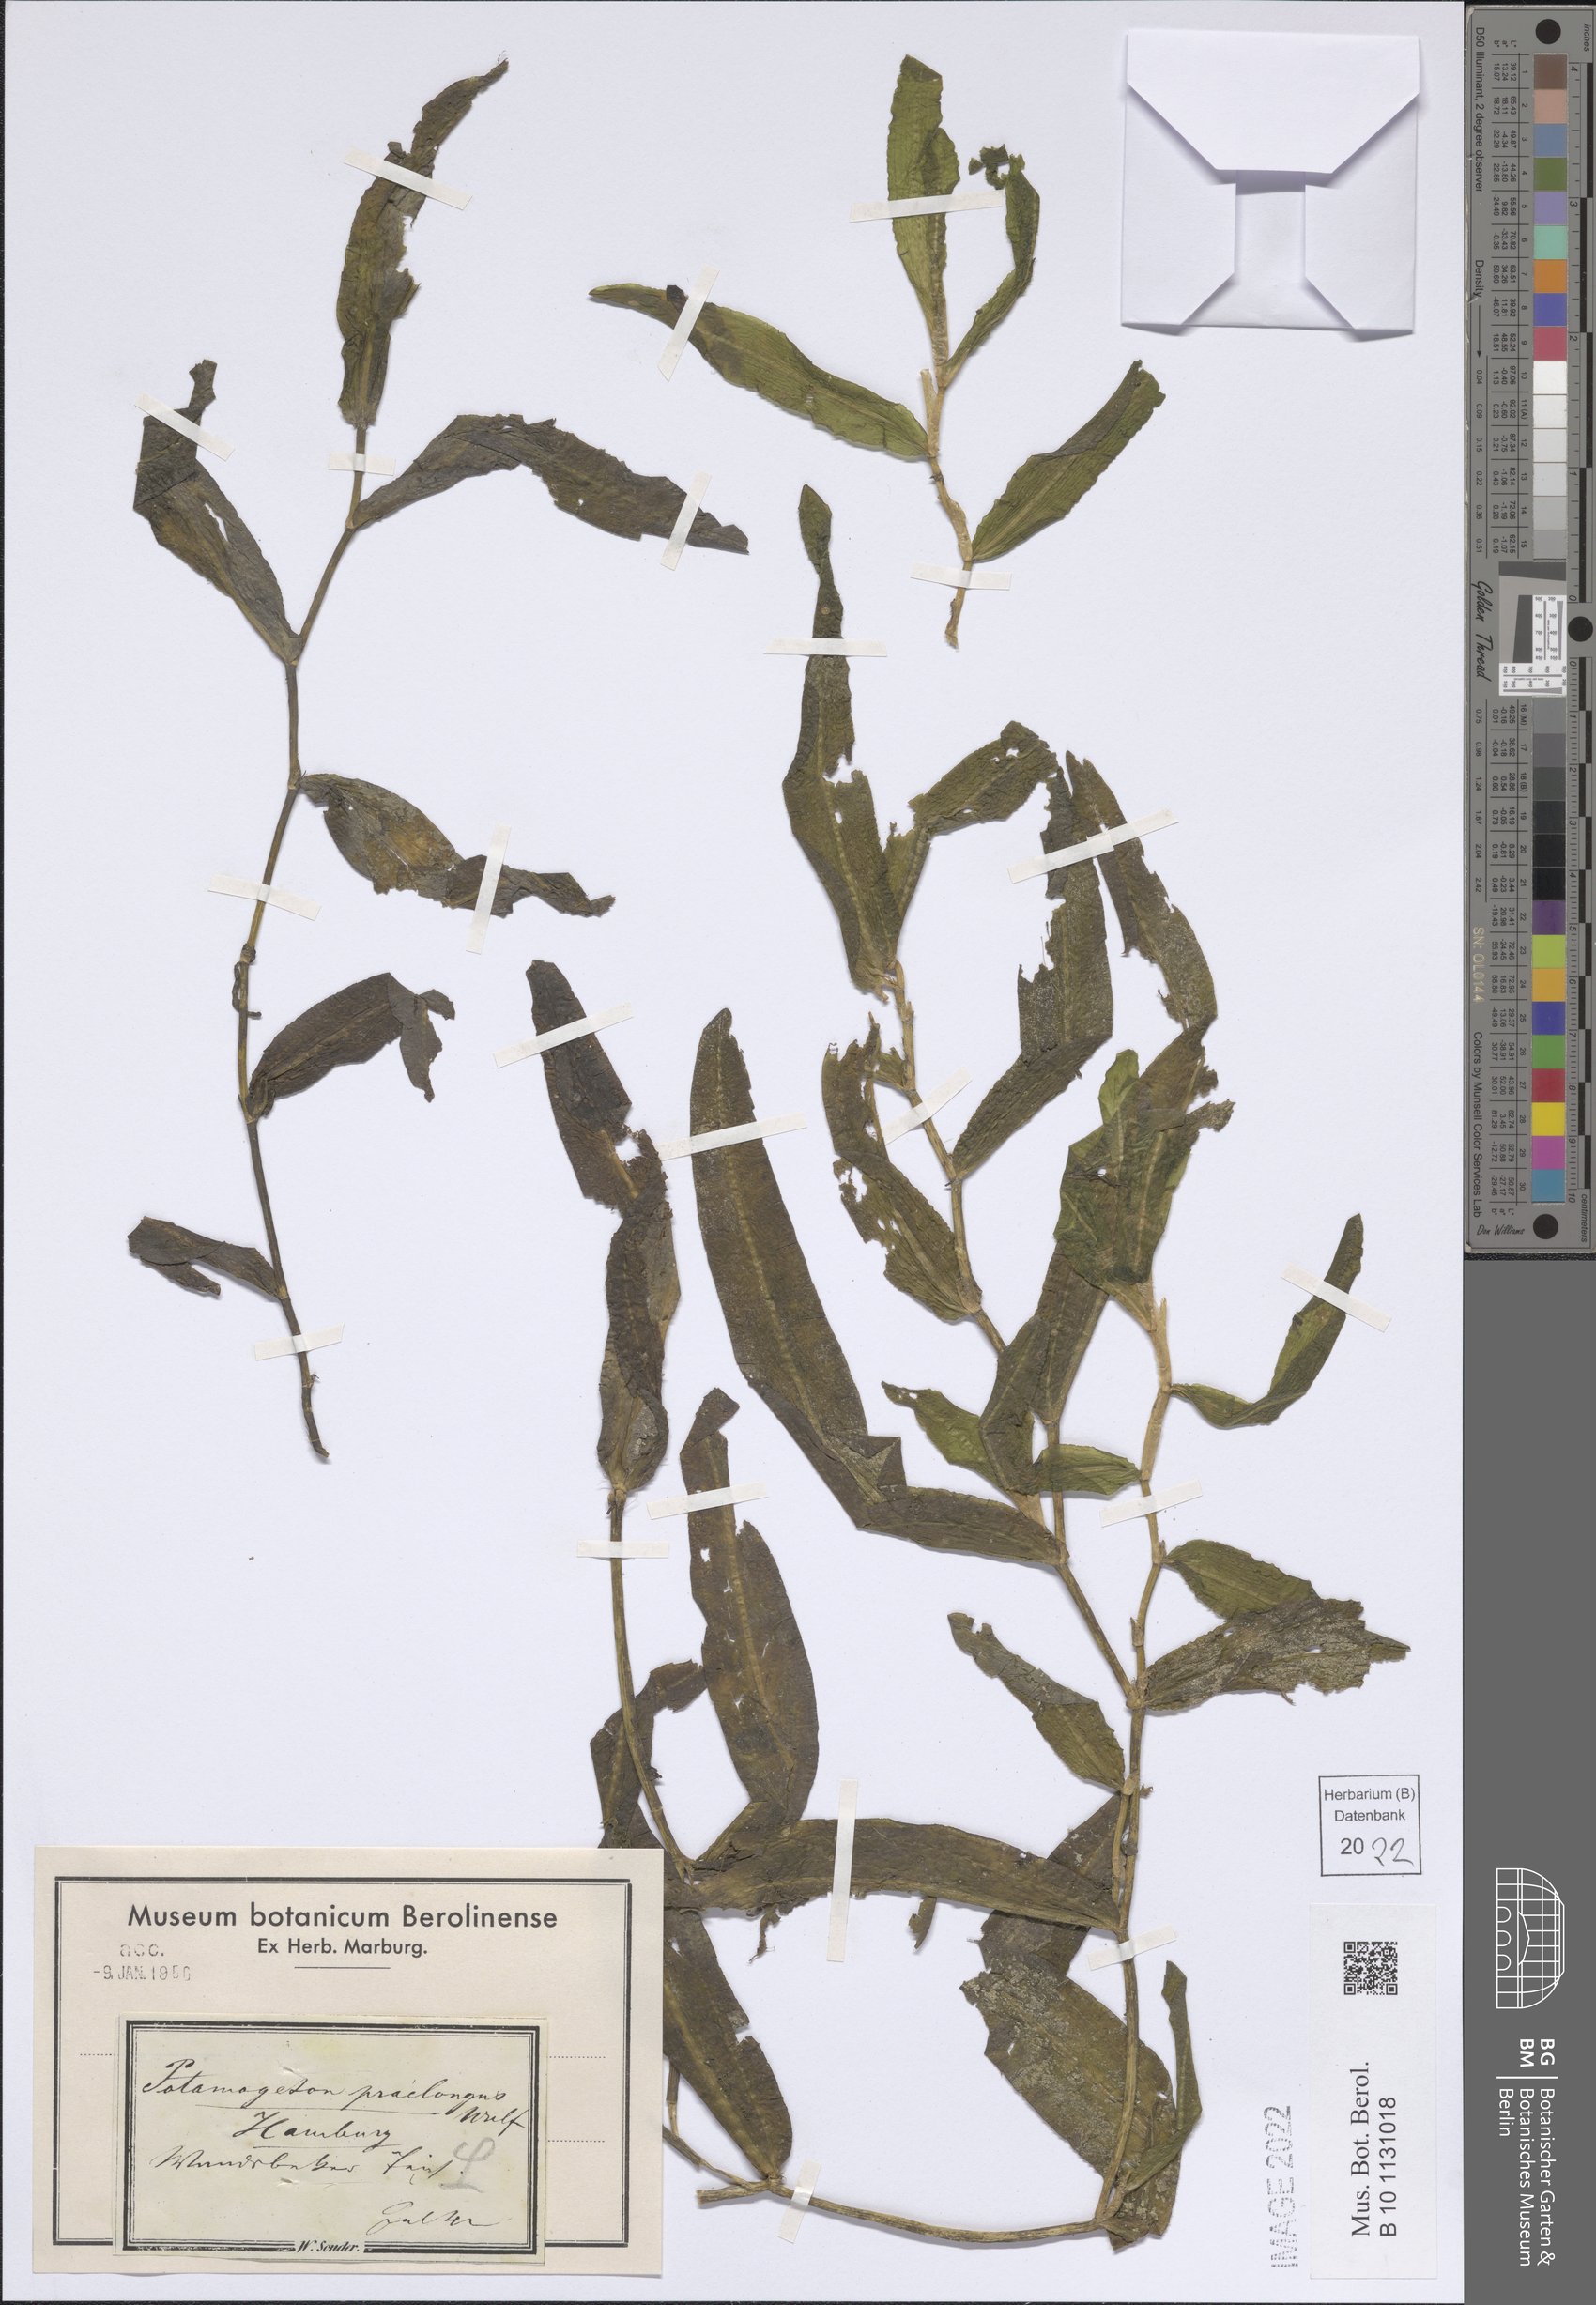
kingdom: Plantae
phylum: Tracheophyta
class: Liliopsida
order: Alismatales
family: Potamogetonaceae
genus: Potamogeton
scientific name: Potamogeton praelongus
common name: Long-stalked pondweed
